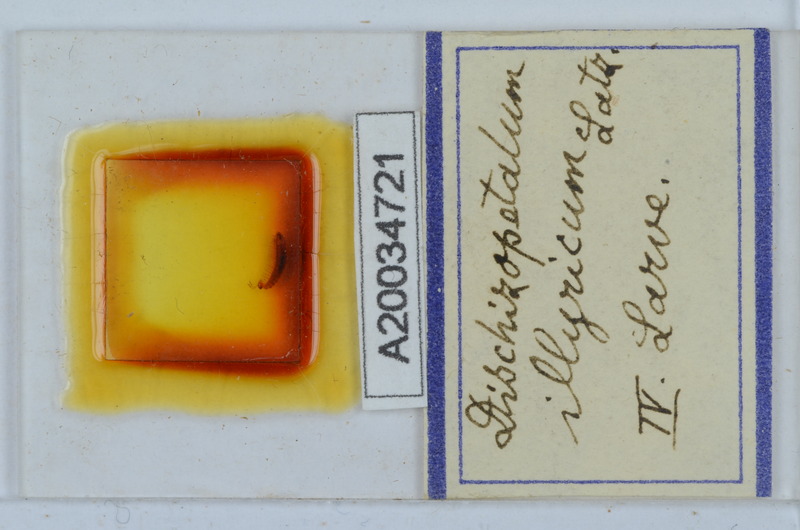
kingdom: Animalia
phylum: Arthropoda
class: Diplopoda
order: Callipodida
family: Schizopetalidae
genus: Callipodella
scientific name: Callipodella
